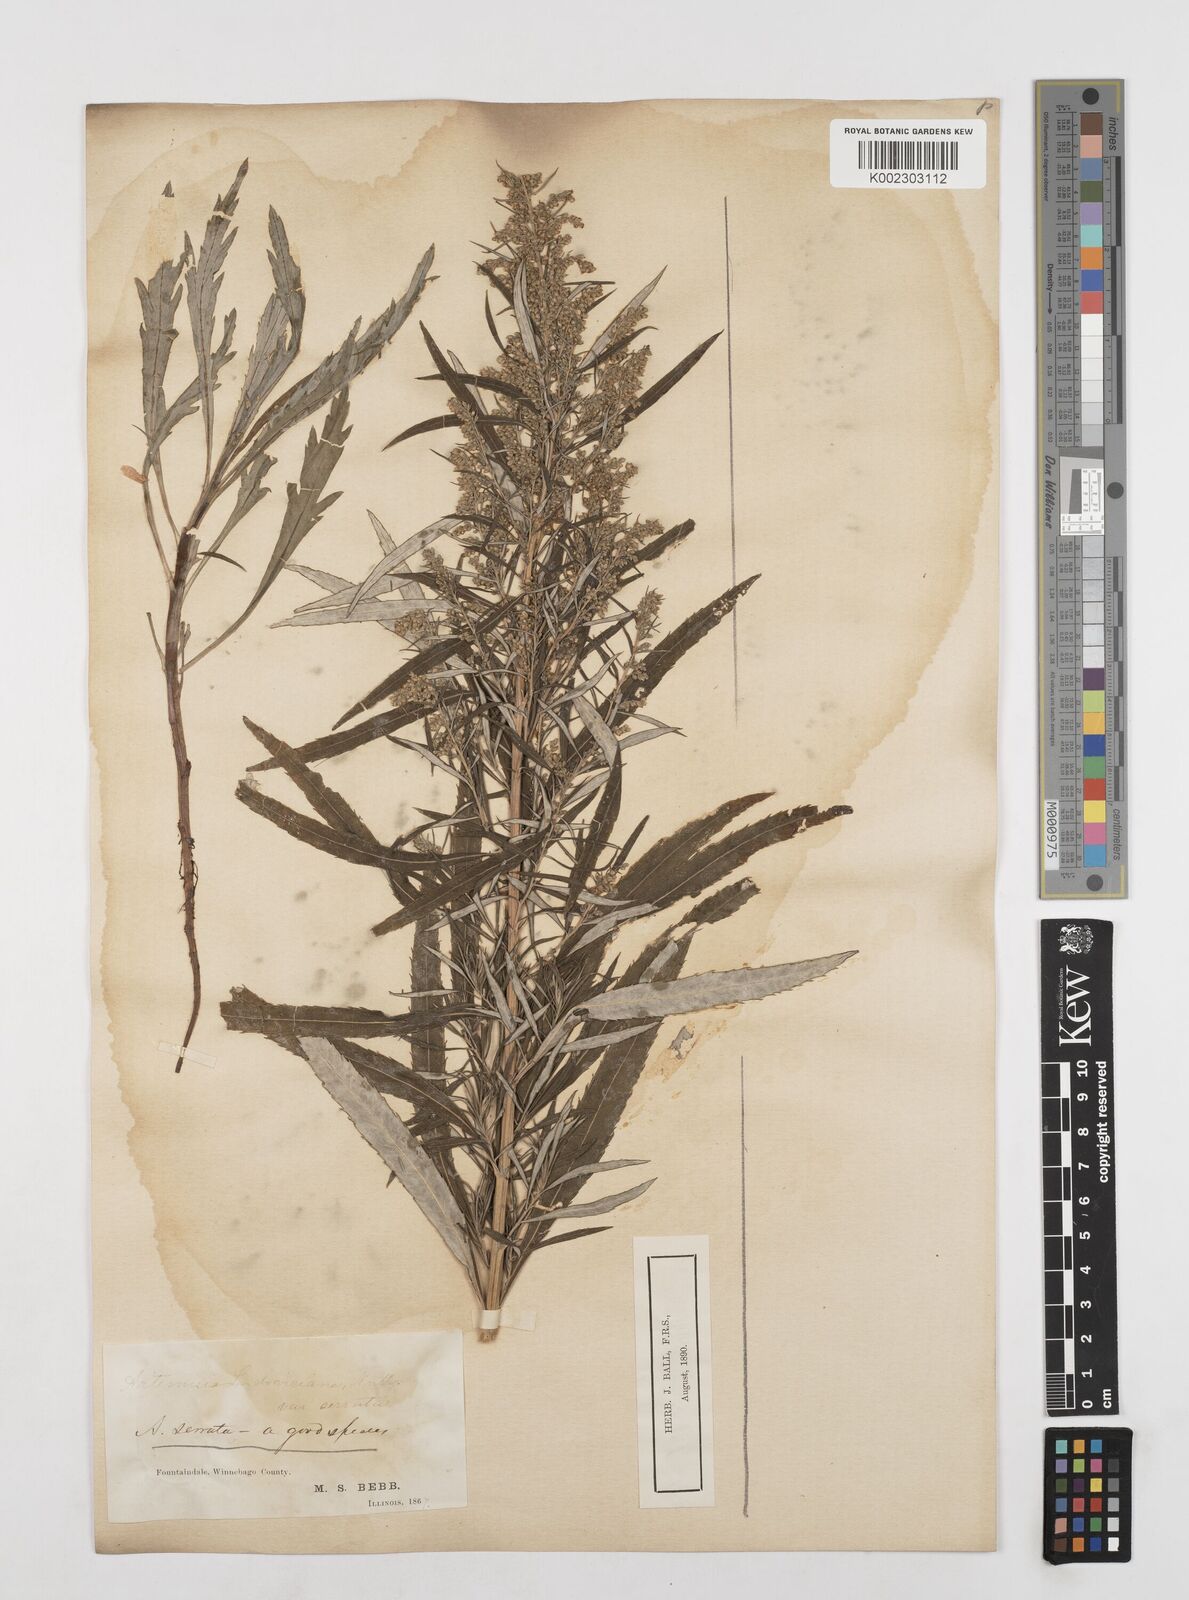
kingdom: Plantae
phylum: Tracheophyta
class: Magnoliopsida
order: Asterales
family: Asteraceae
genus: Artemisia
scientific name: Artemisia serrata
